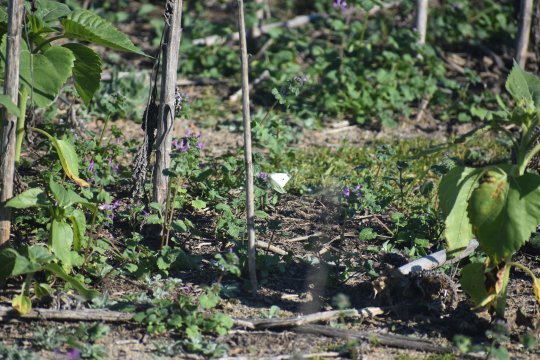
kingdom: Animalia
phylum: Arthropoda
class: Insecta
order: Lepidoptera
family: Pieridae
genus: Pieris
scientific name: Pieris rapae
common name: Cabbage White
